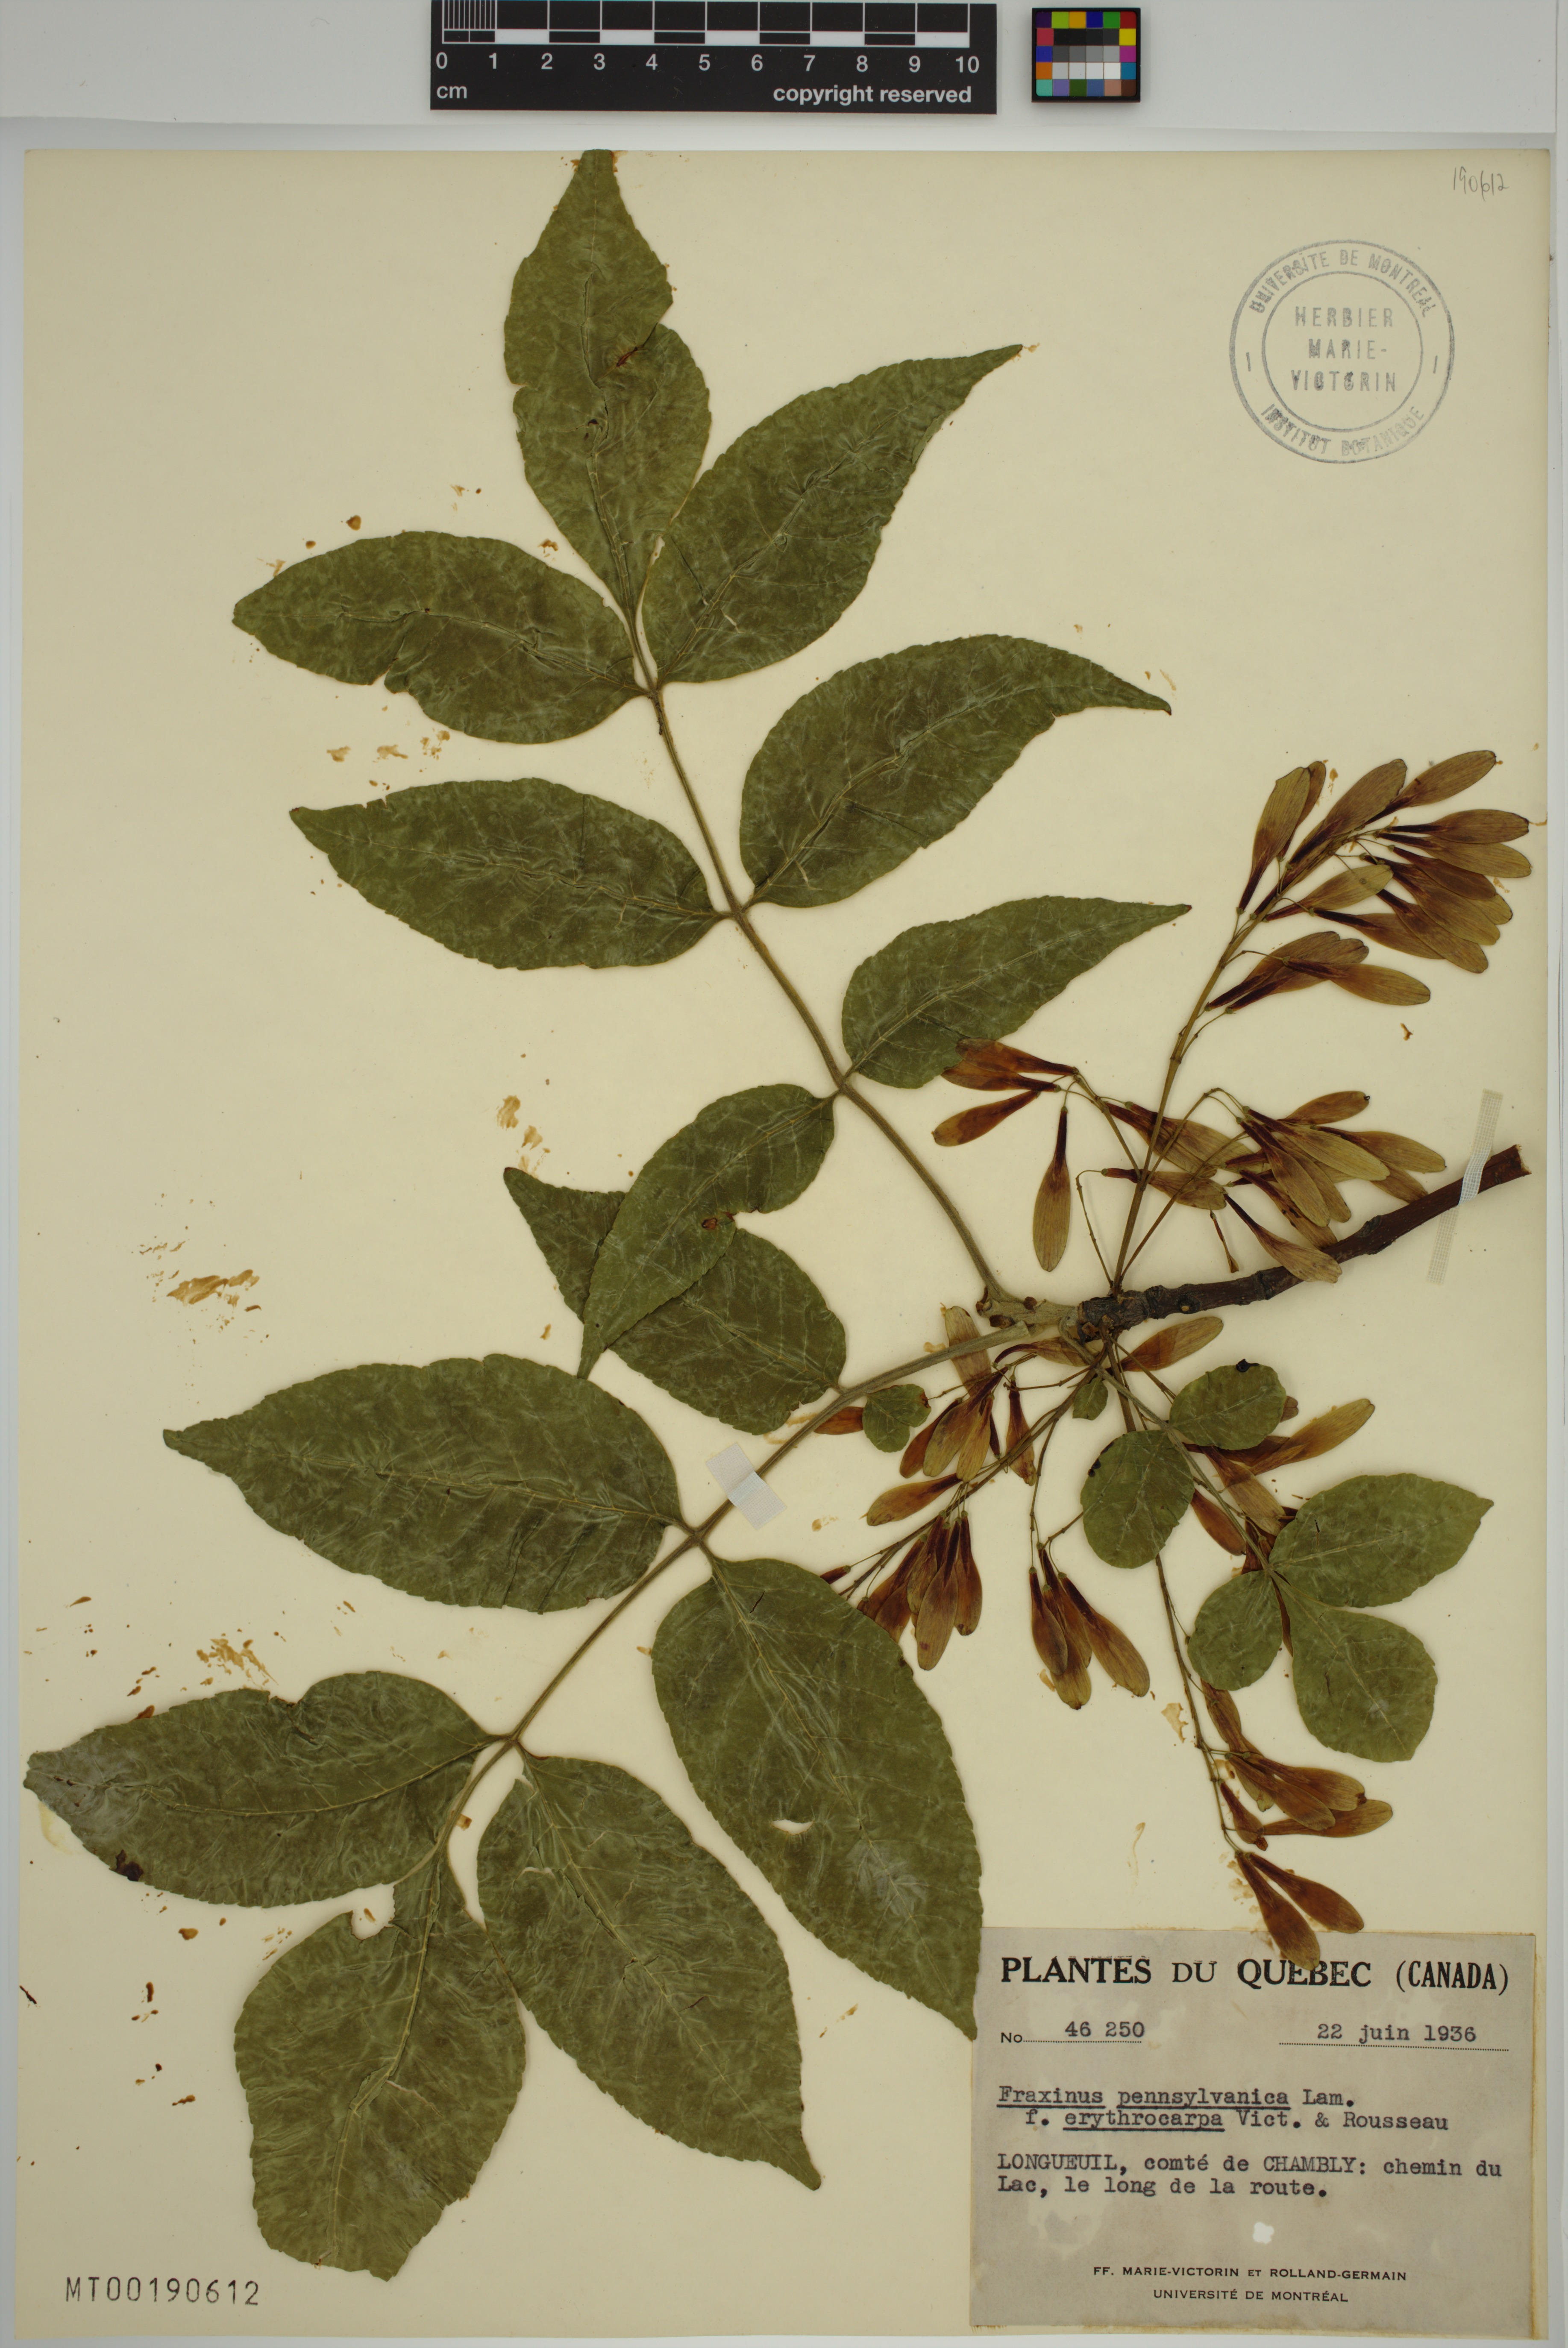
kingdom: Plantae
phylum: Tracheophyta
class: Magnoliopsida
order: Lamiales
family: Oleaceae
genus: Fraxinus
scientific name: Fraxinus pennsylvanica
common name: Green ash
